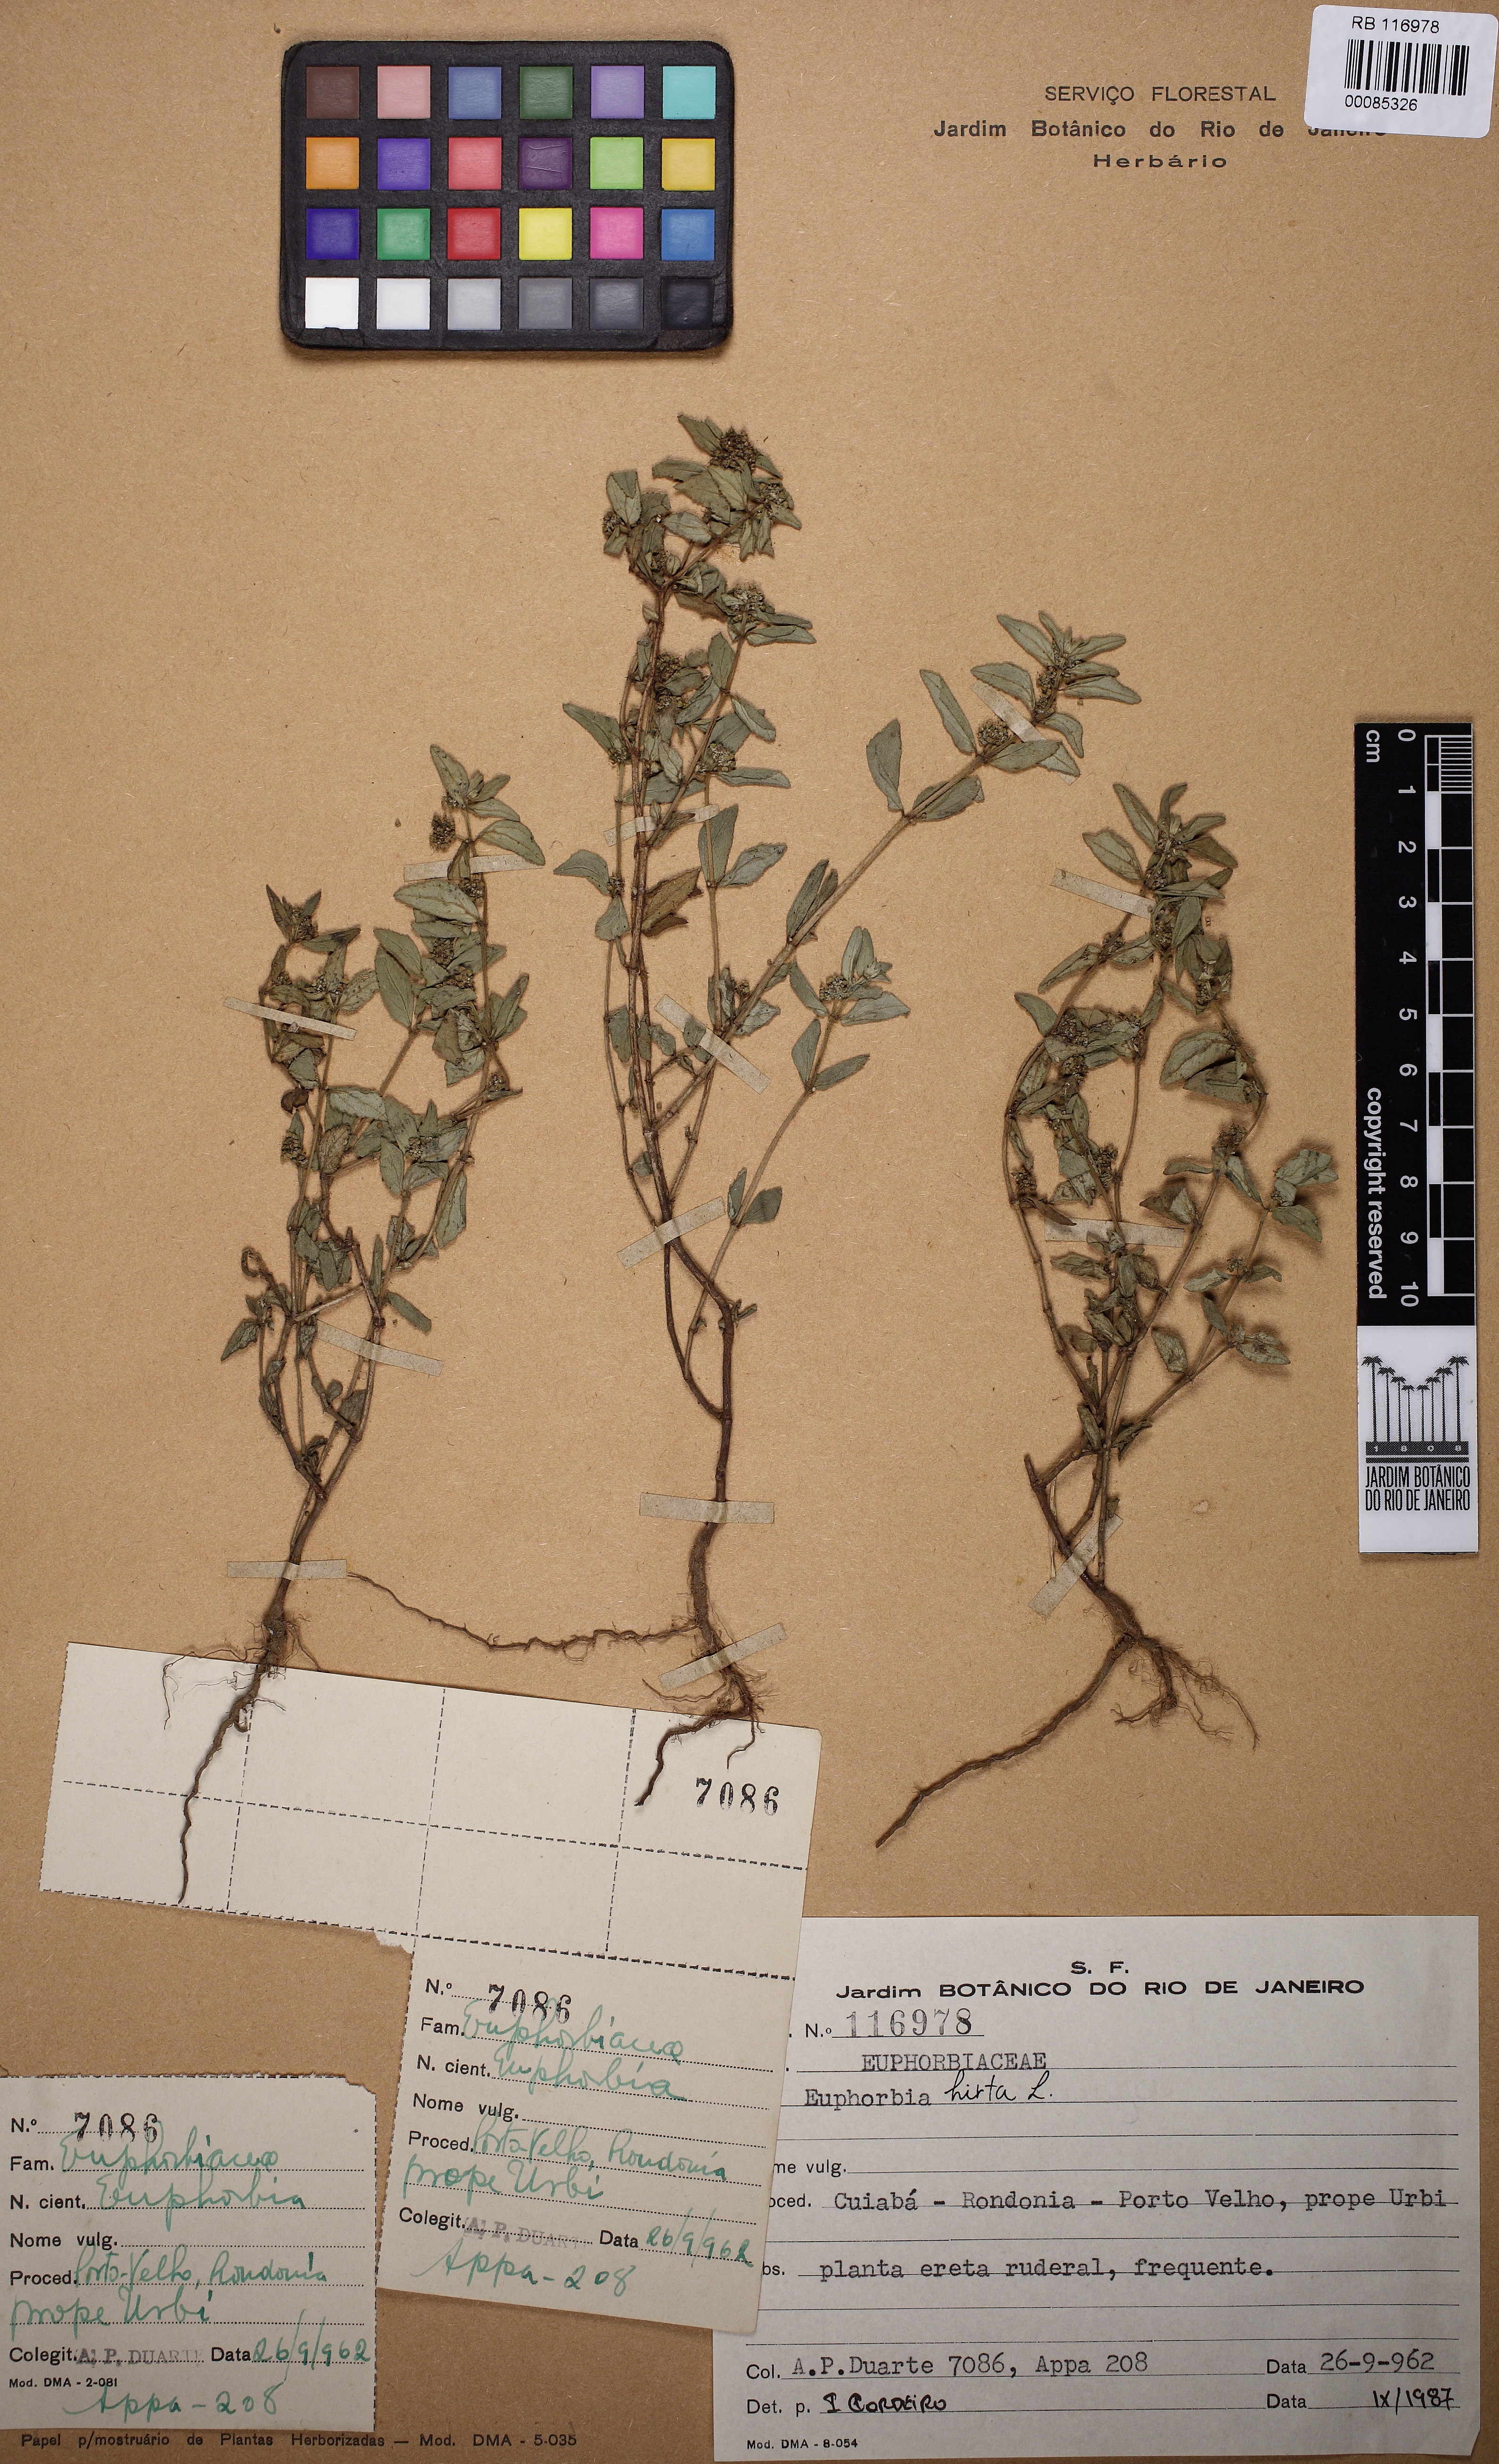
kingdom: Plantae
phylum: Tracheophyta
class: Magnoliopsida
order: Malpighiales
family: Euphorbiaceae
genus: Euphorbia
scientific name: Euphorbia hirta
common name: Pillpod sandmat
